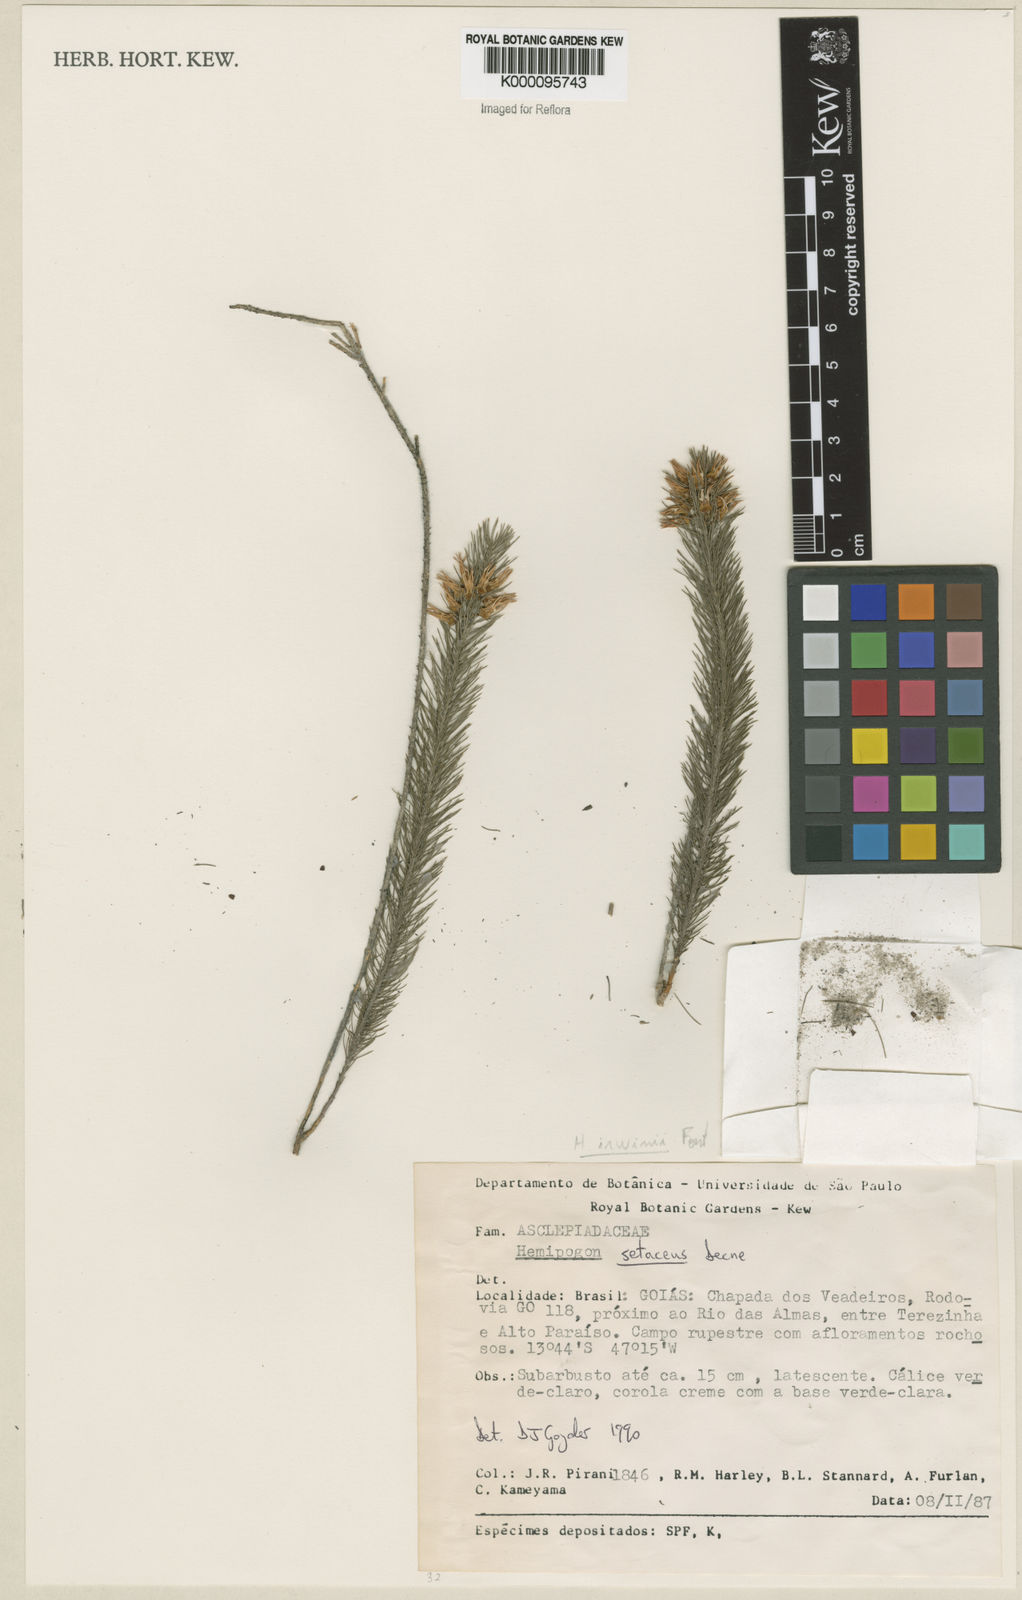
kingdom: Plantae
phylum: Tracheophyta
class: Magnoliopsida
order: Gentianales
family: Apocynaceae
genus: Hemipogon
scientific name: Hemipogon
